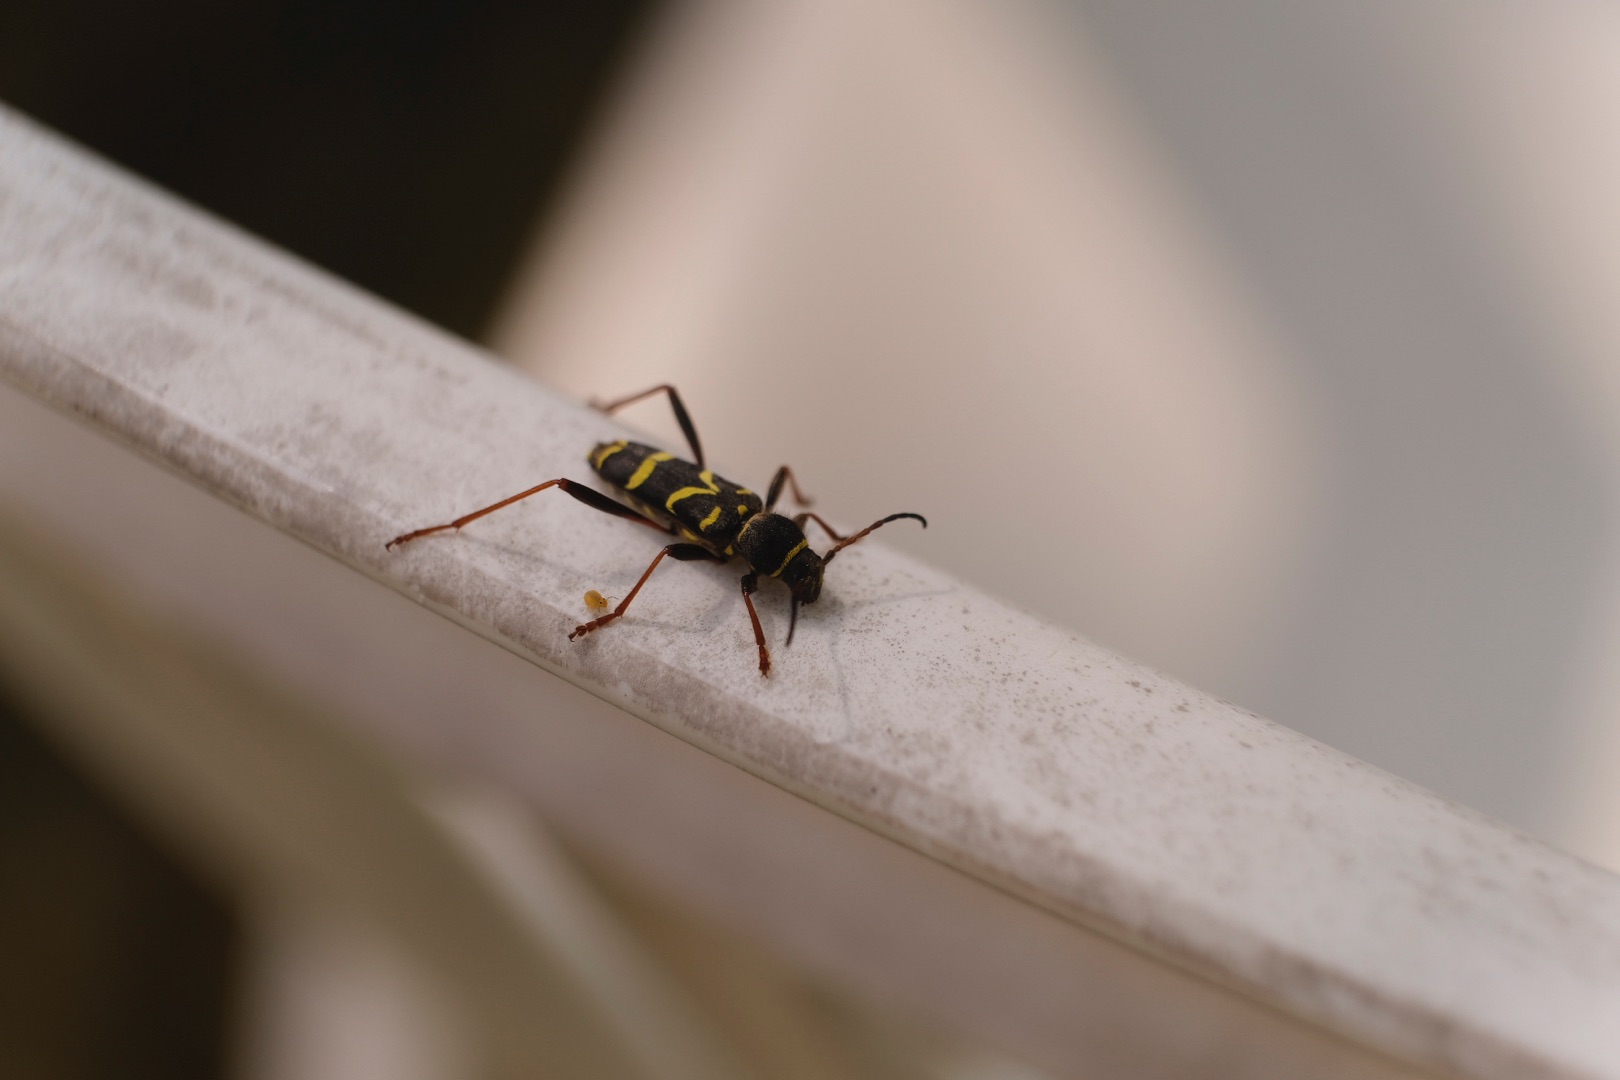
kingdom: Animalia
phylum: Arthropoda
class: Insecta
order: Coleoptera
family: Cerambycidae
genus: Clytus
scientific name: Clytus arietis
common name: Lille hvepsebuk
